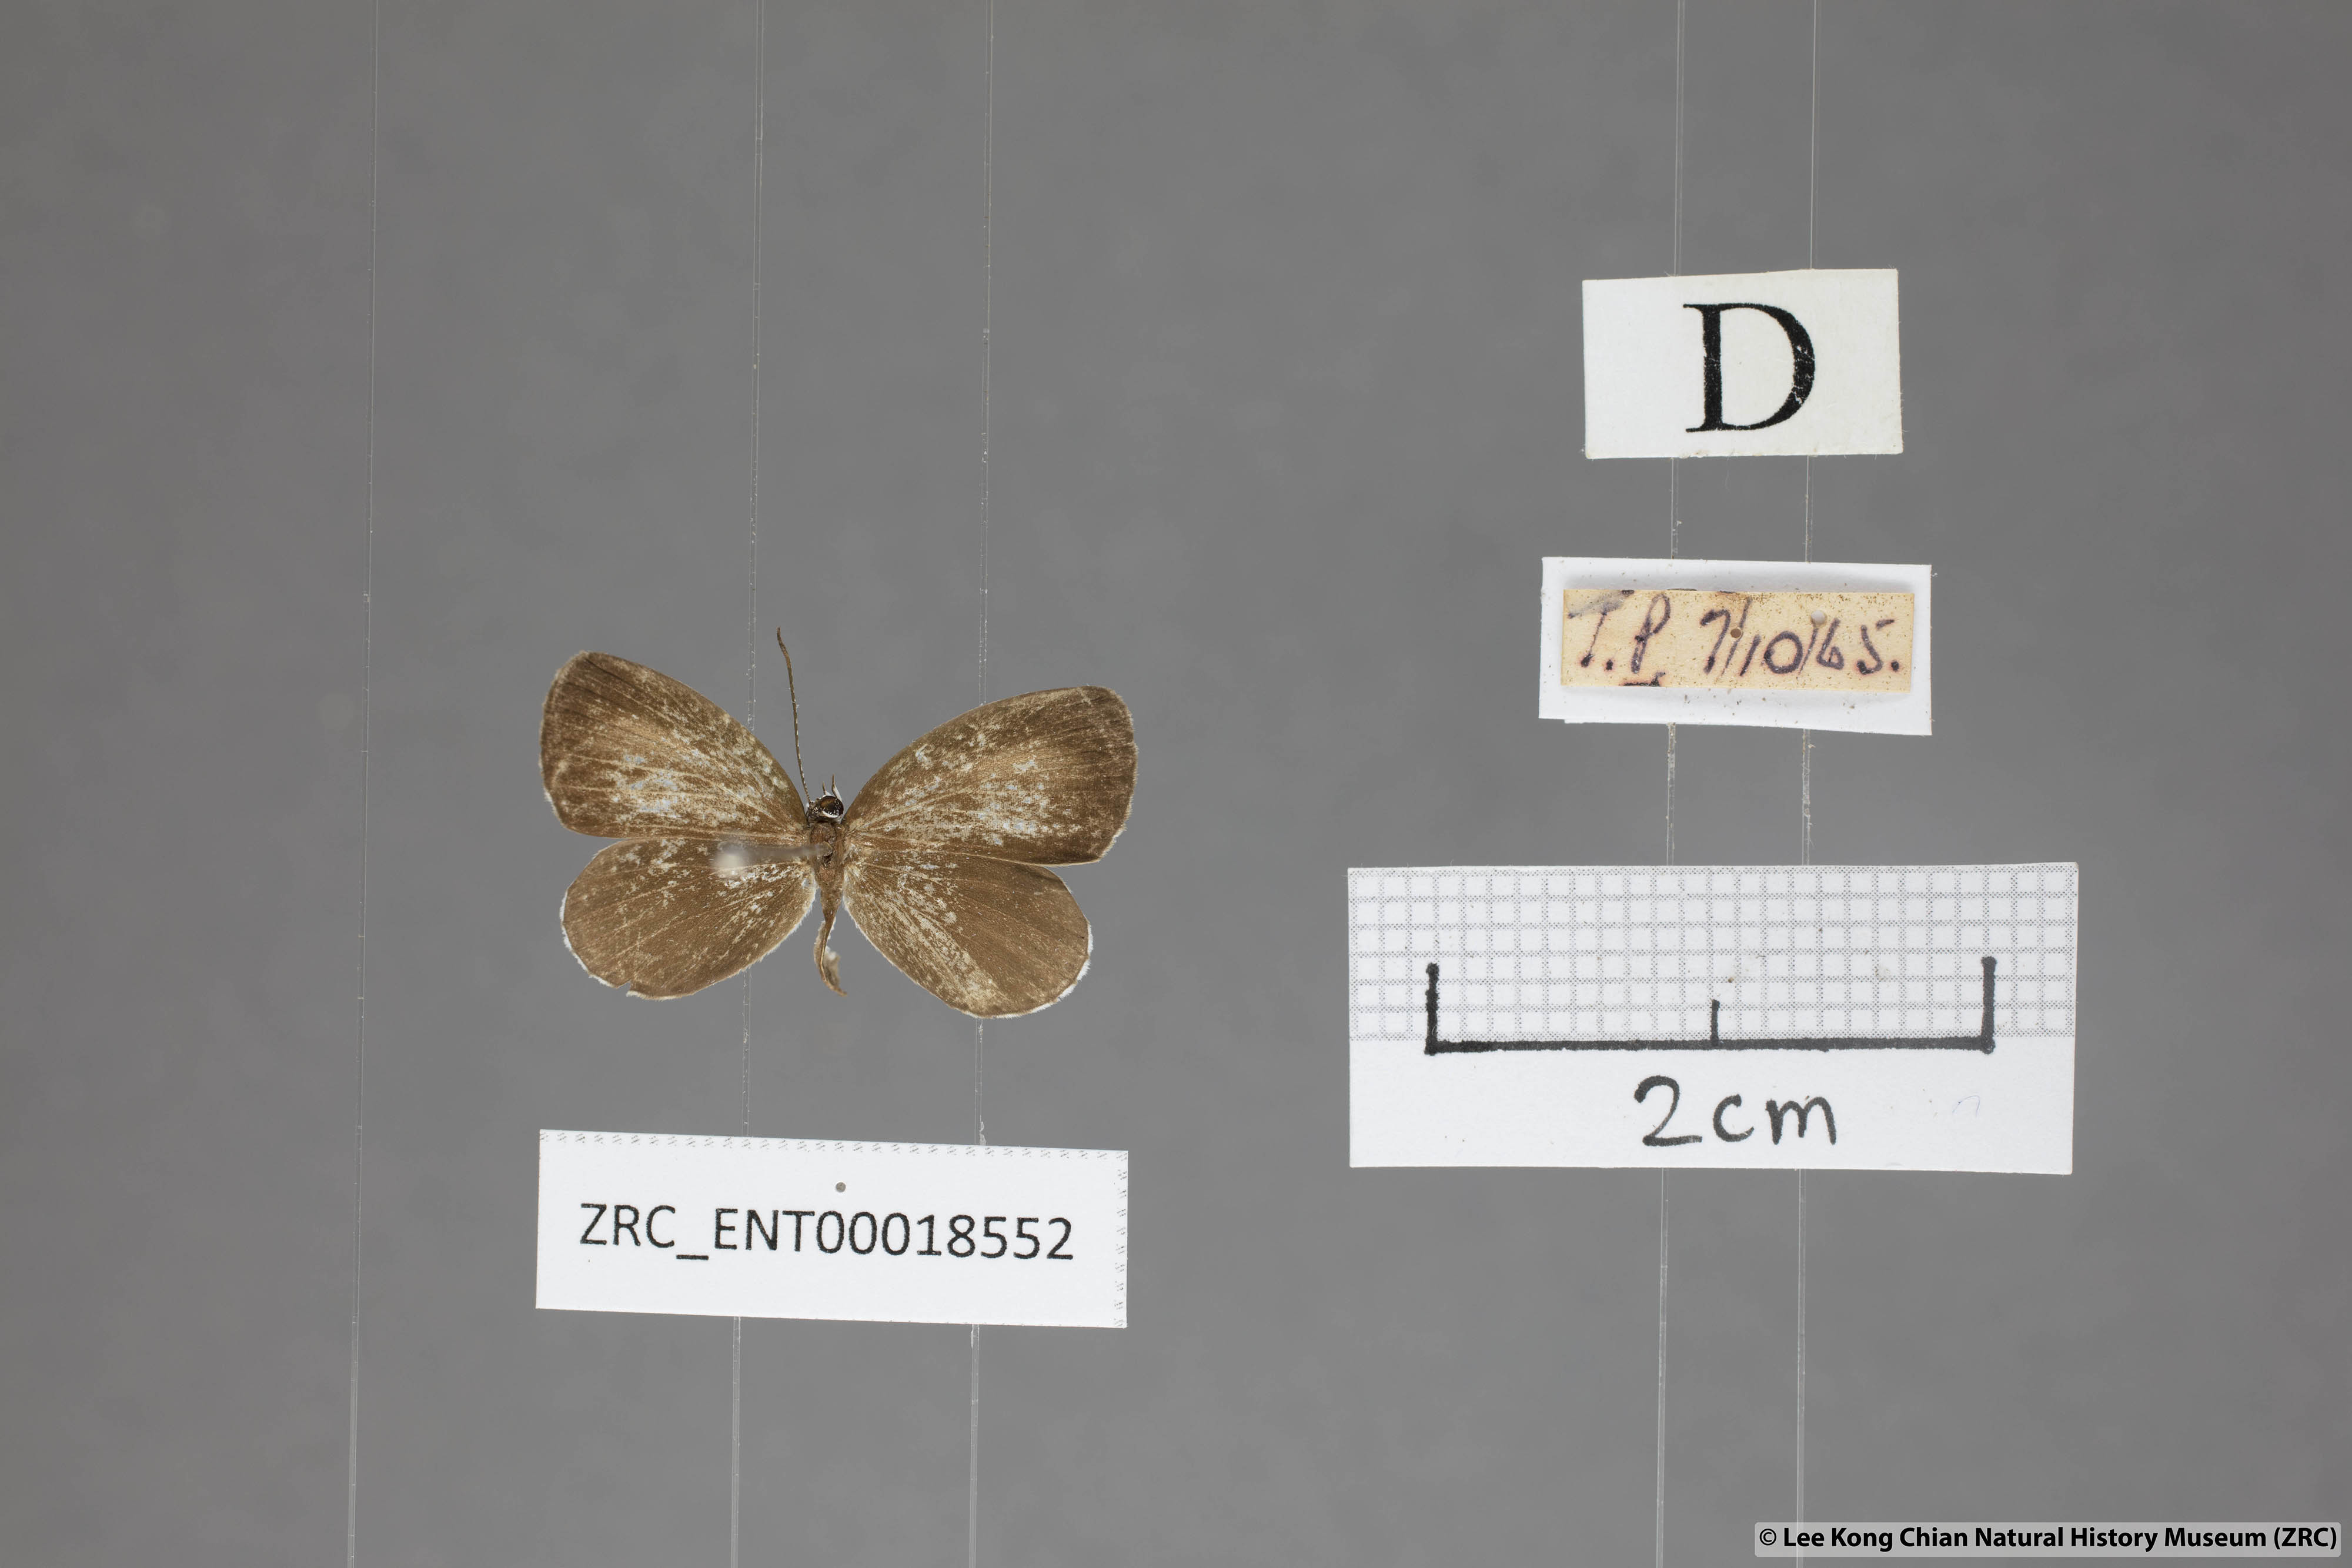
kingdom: Animalia
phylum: Arthropoda
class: Insecta
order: Lepidoptera
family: Lycaenidae
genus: Pithecops
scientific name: Pithecops corvus
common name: Forest quaker
